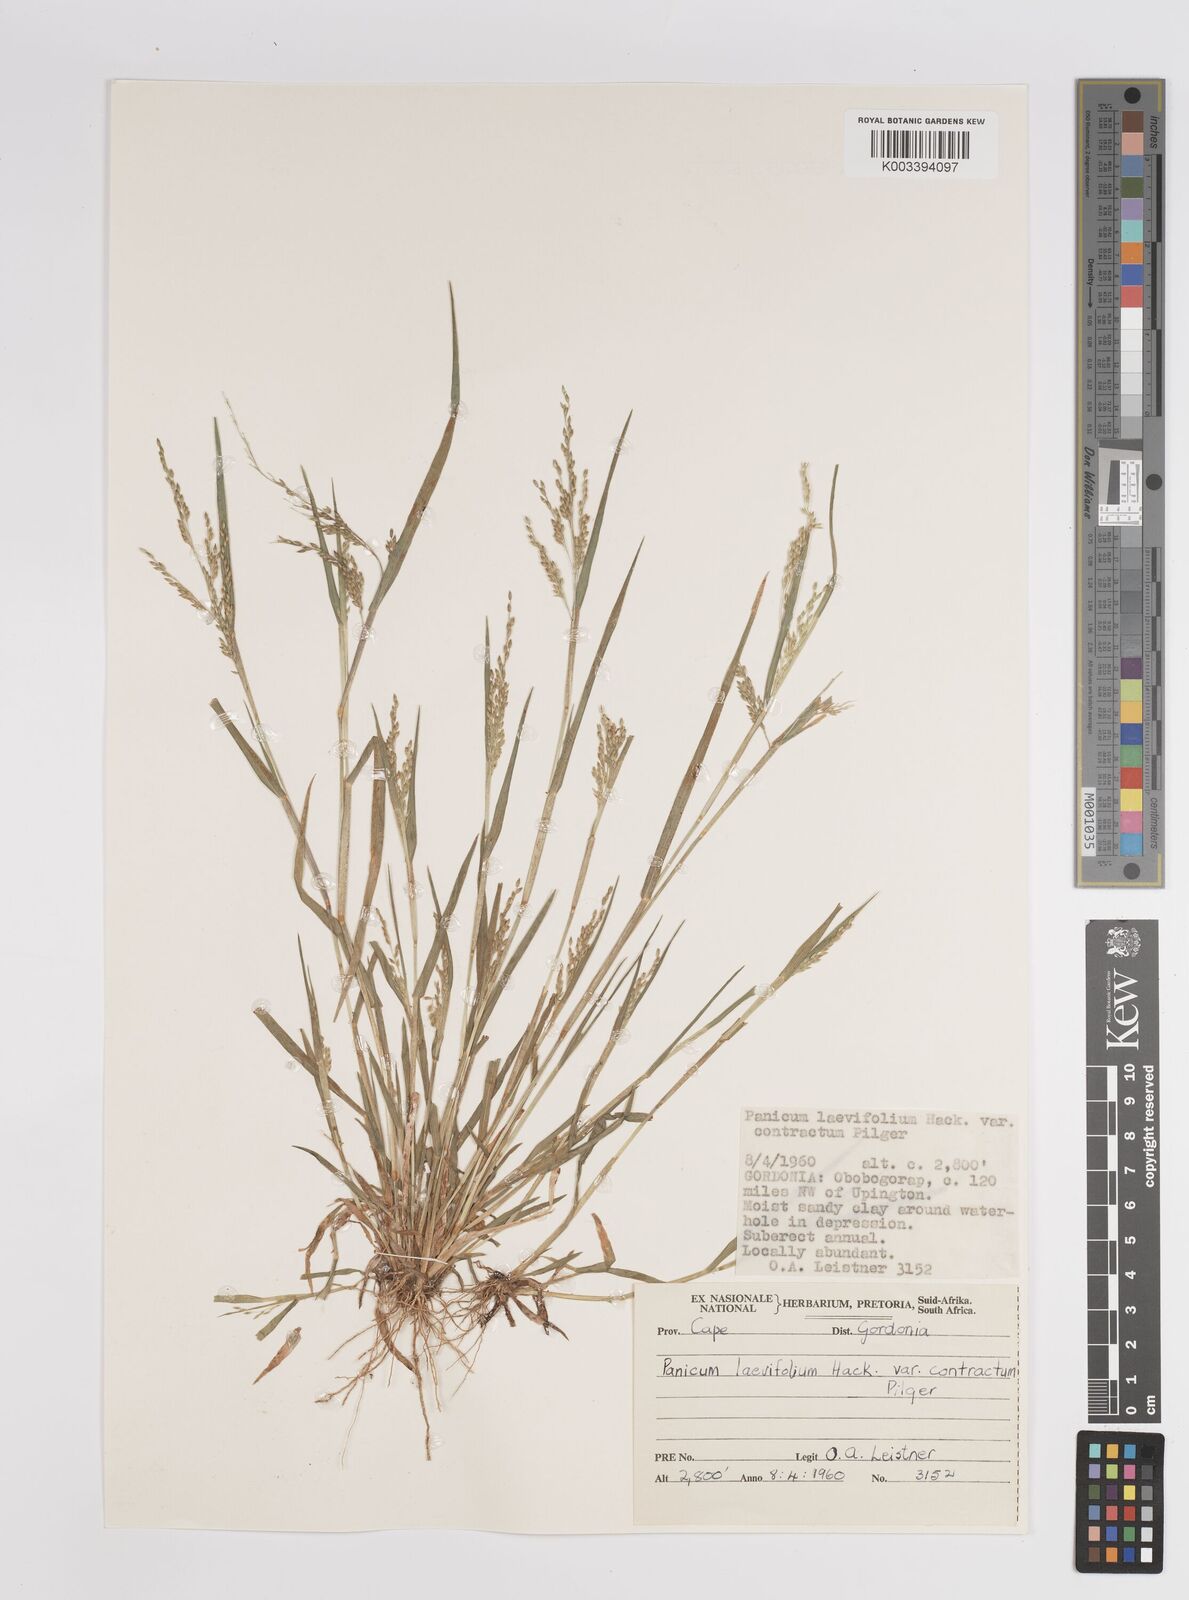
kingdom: Plantae
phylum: Tracheophyta
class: Liliopsida
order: Poales
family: Poaceae
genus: Panicum
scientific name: Panicum impeditum
